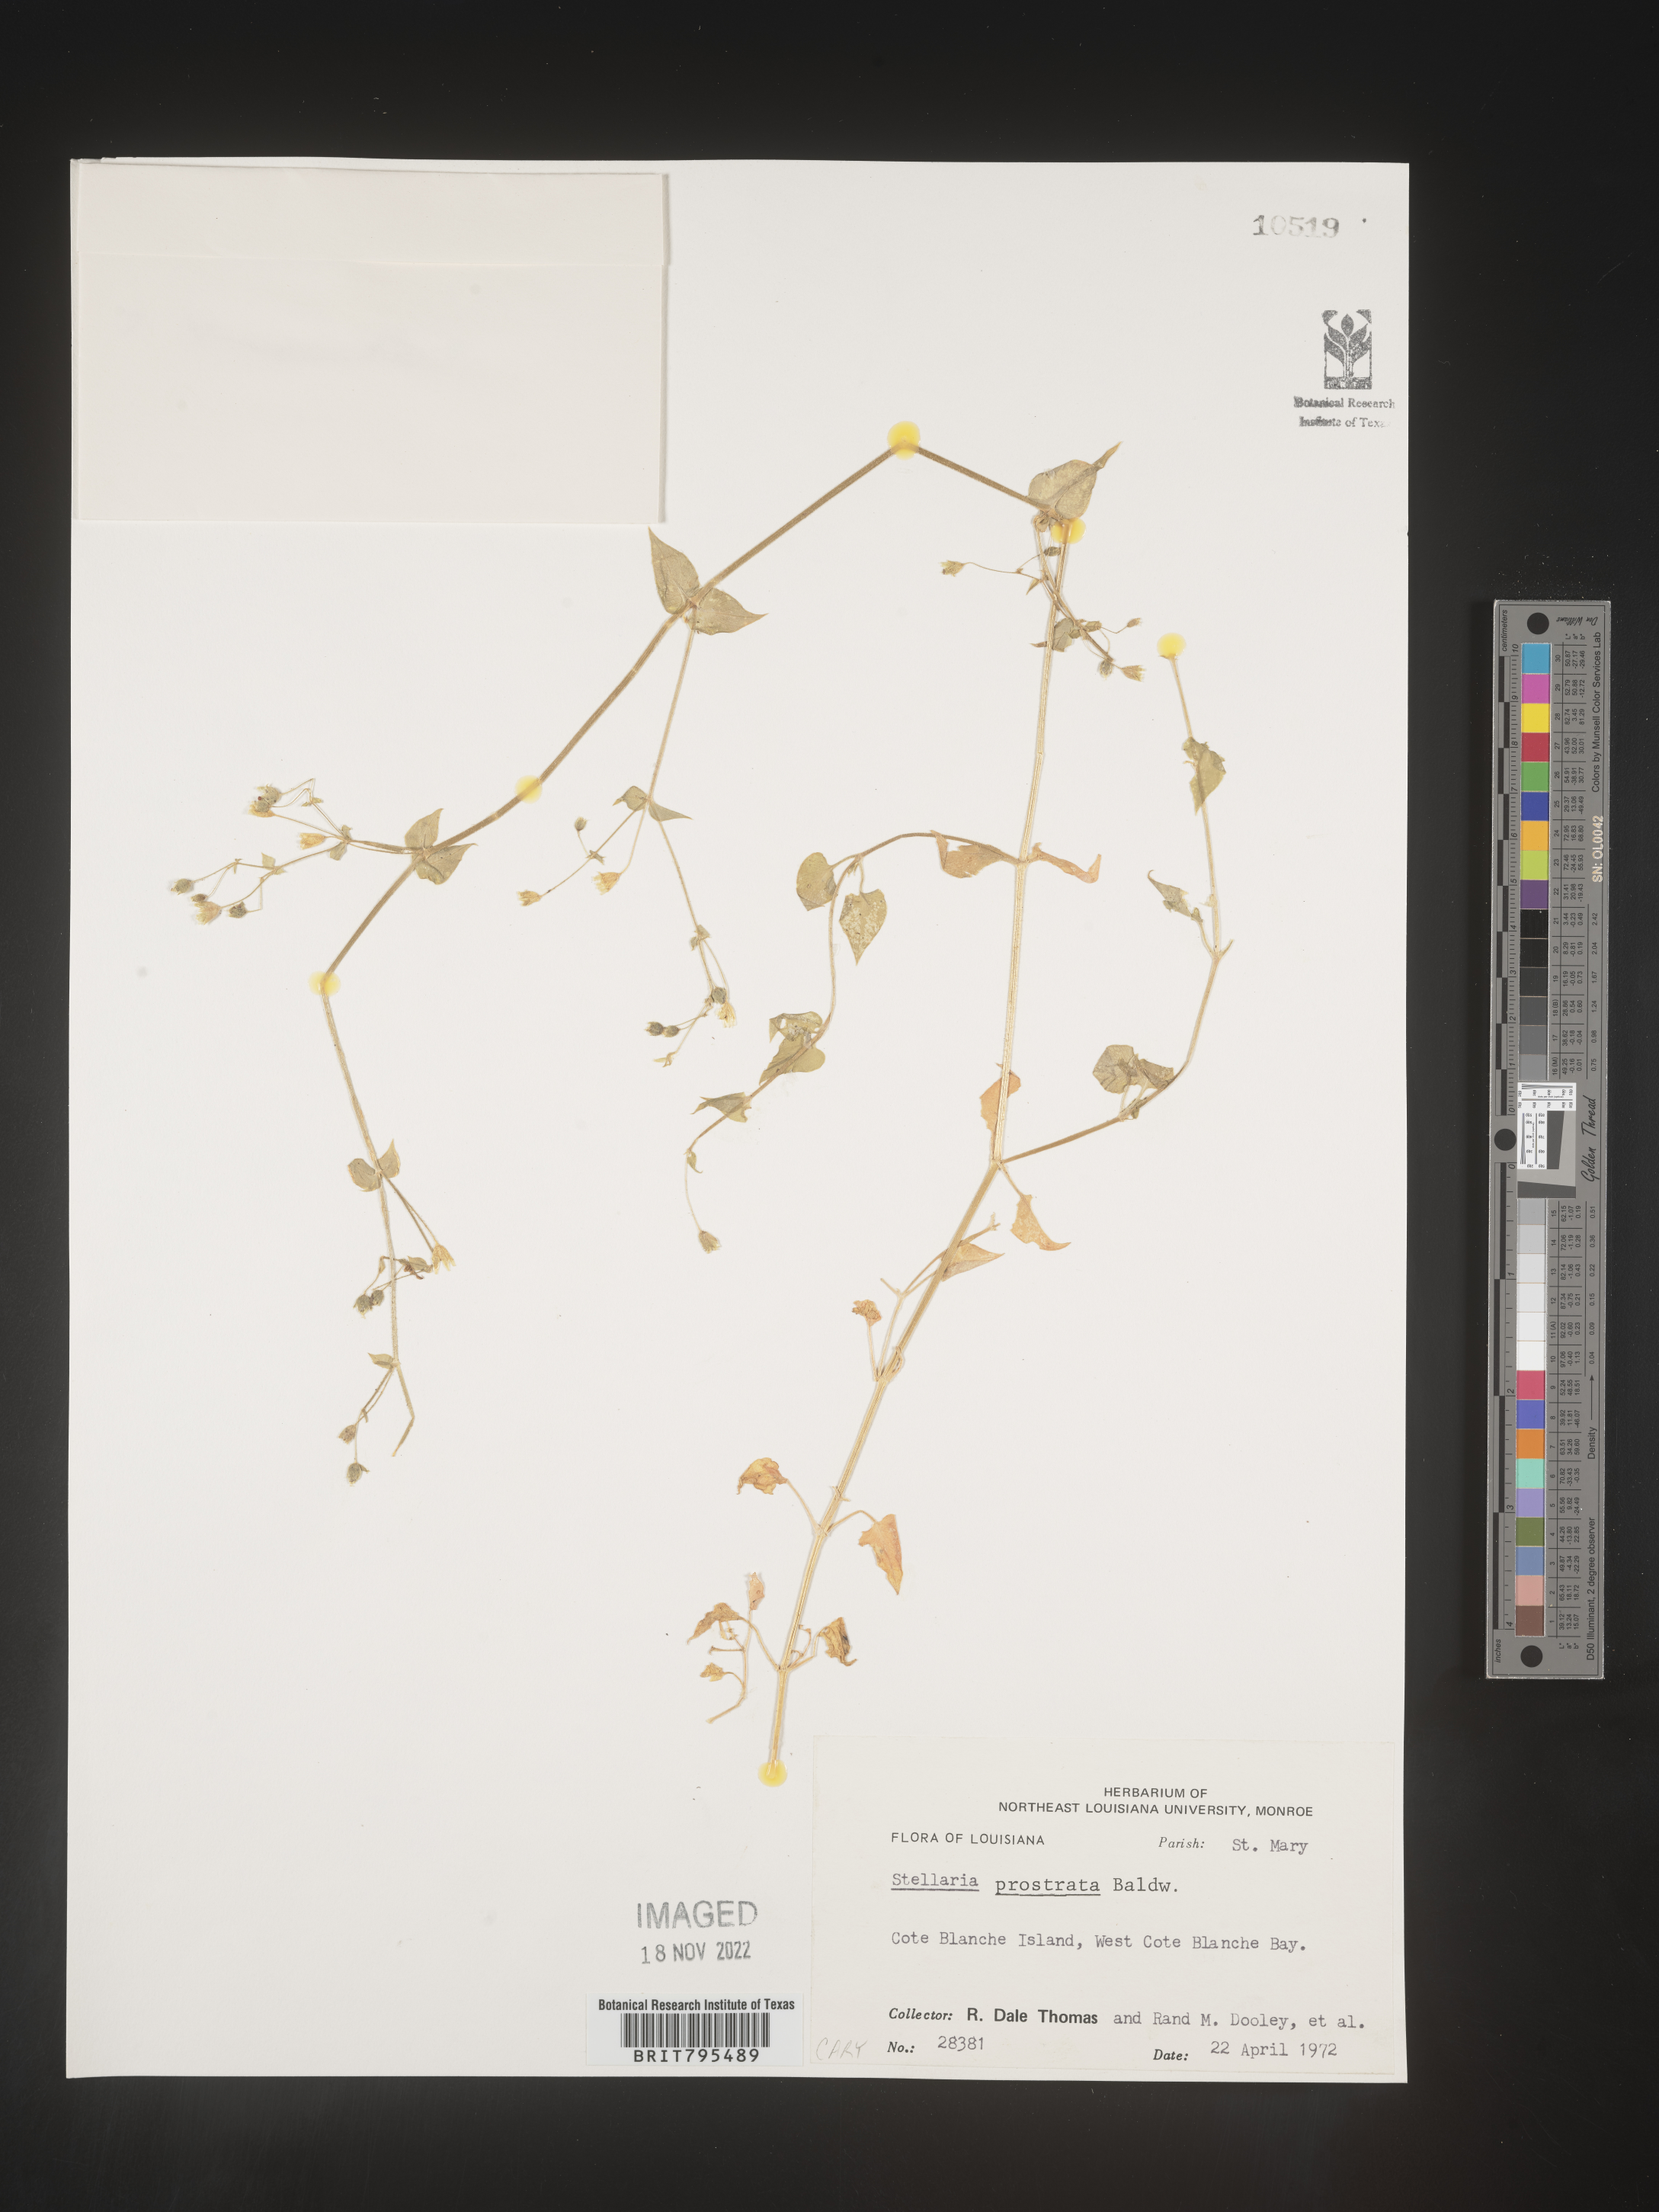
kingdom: Plantae
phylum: Tracheophyta
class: Magnoliopsida
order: Caryophyllales
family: Caryophyllaceae
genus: Stellaria
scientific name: Stellaria cuspidata
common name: Mexican chickweed
